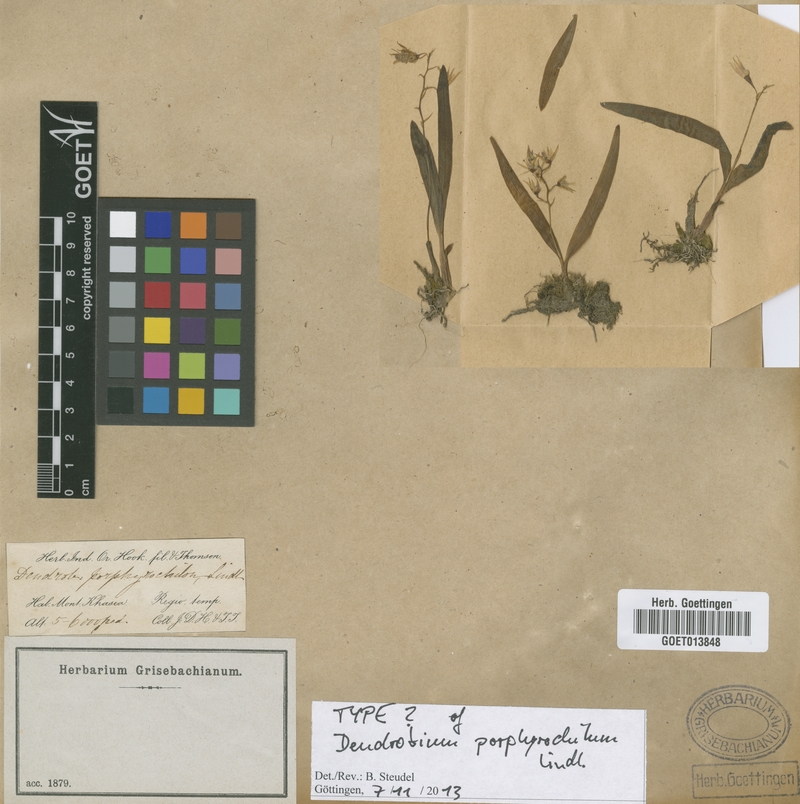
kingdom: Plantae
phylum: Tracheophyta
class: Liliopsida
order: Asparagales
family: Orchidaceae
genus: Dendrobium
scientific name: Dendrobium porphyrochilum
